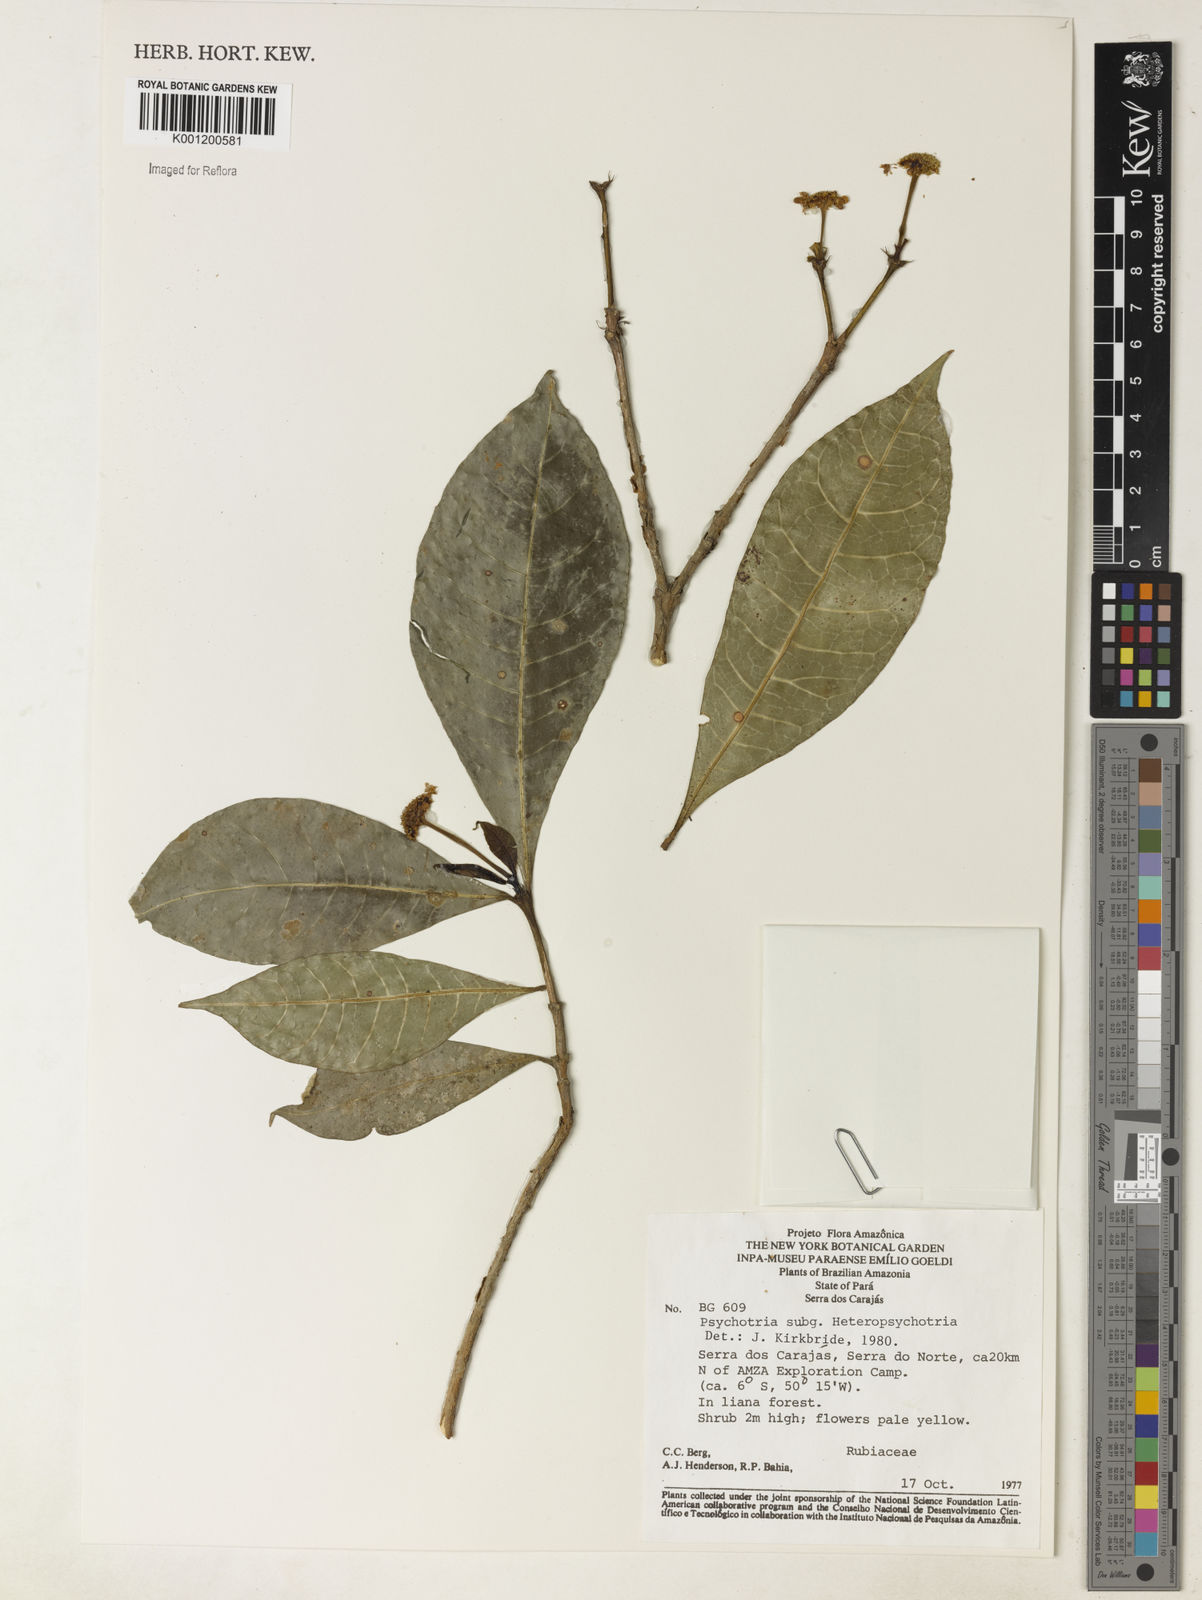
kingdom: Plantae
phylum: Tracheophyta
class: Magnoliopsida
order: Gentianales
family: Rubiaceae
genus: Psychotria
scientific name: Psychotria
